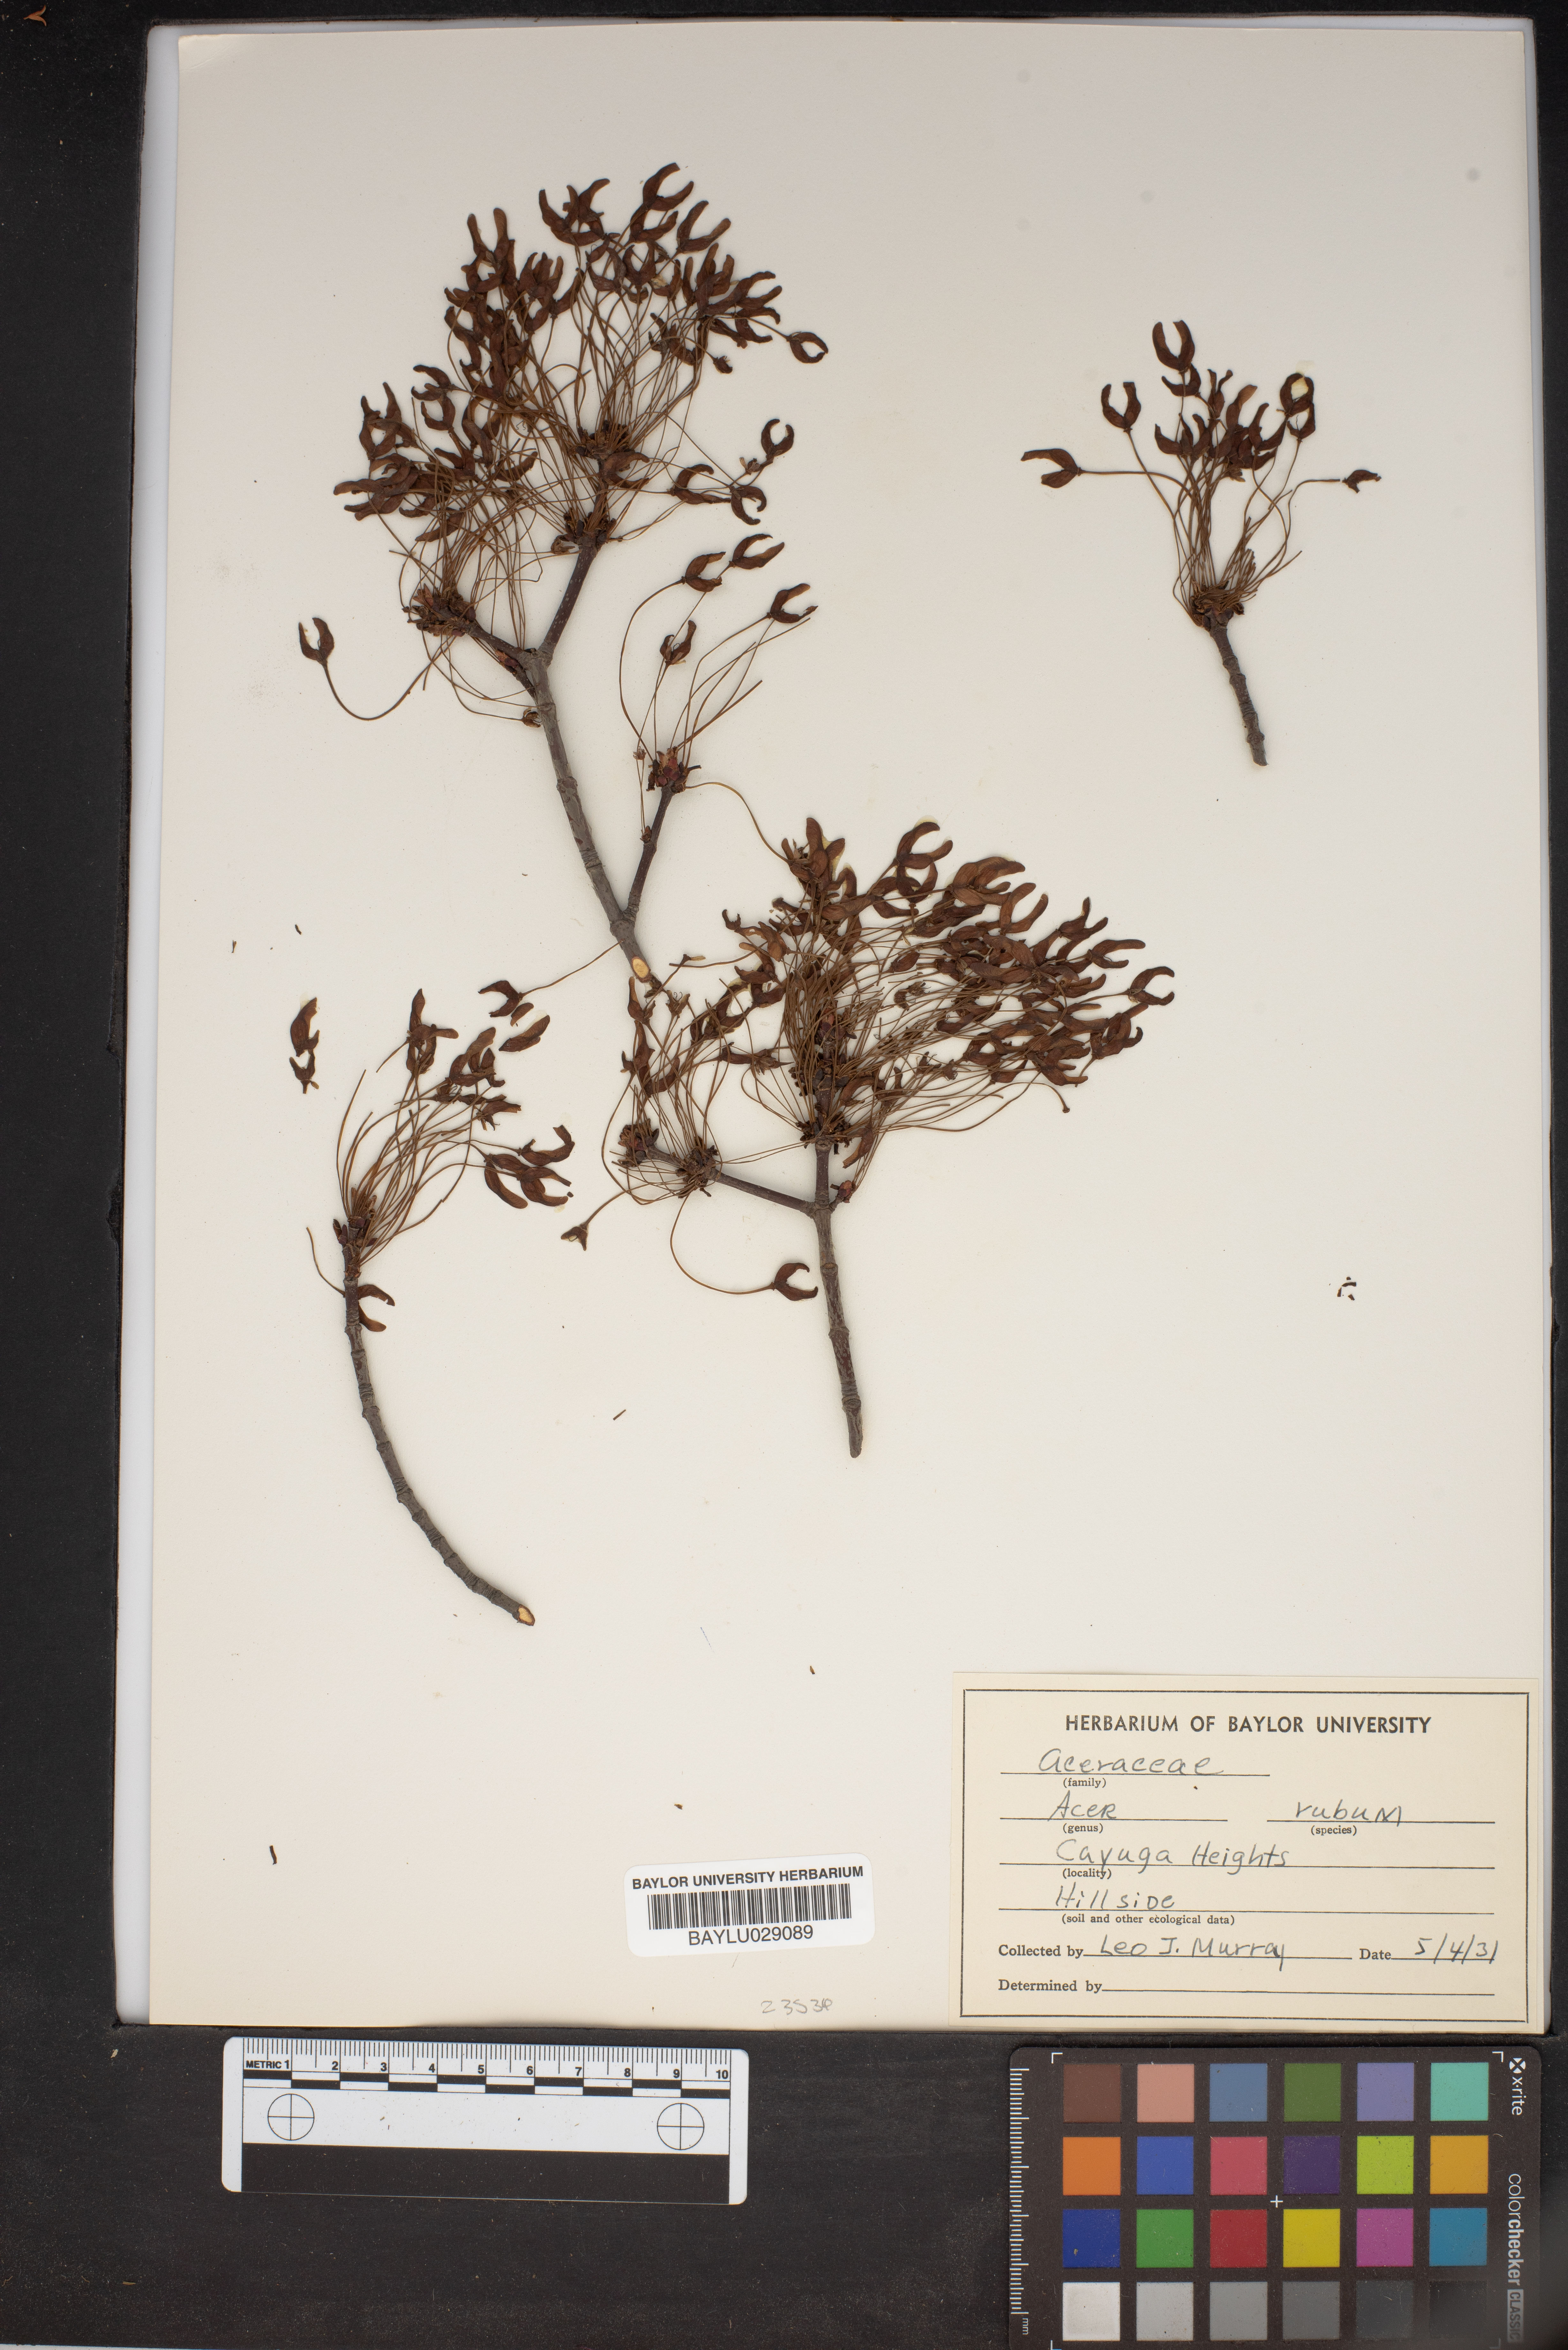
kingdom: Plantae
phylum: Tracheophyta
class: Magnoliopsida
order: Sapindales
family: Sapindaceae
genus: Acer
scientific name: Acer rubrum
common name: Red maple
